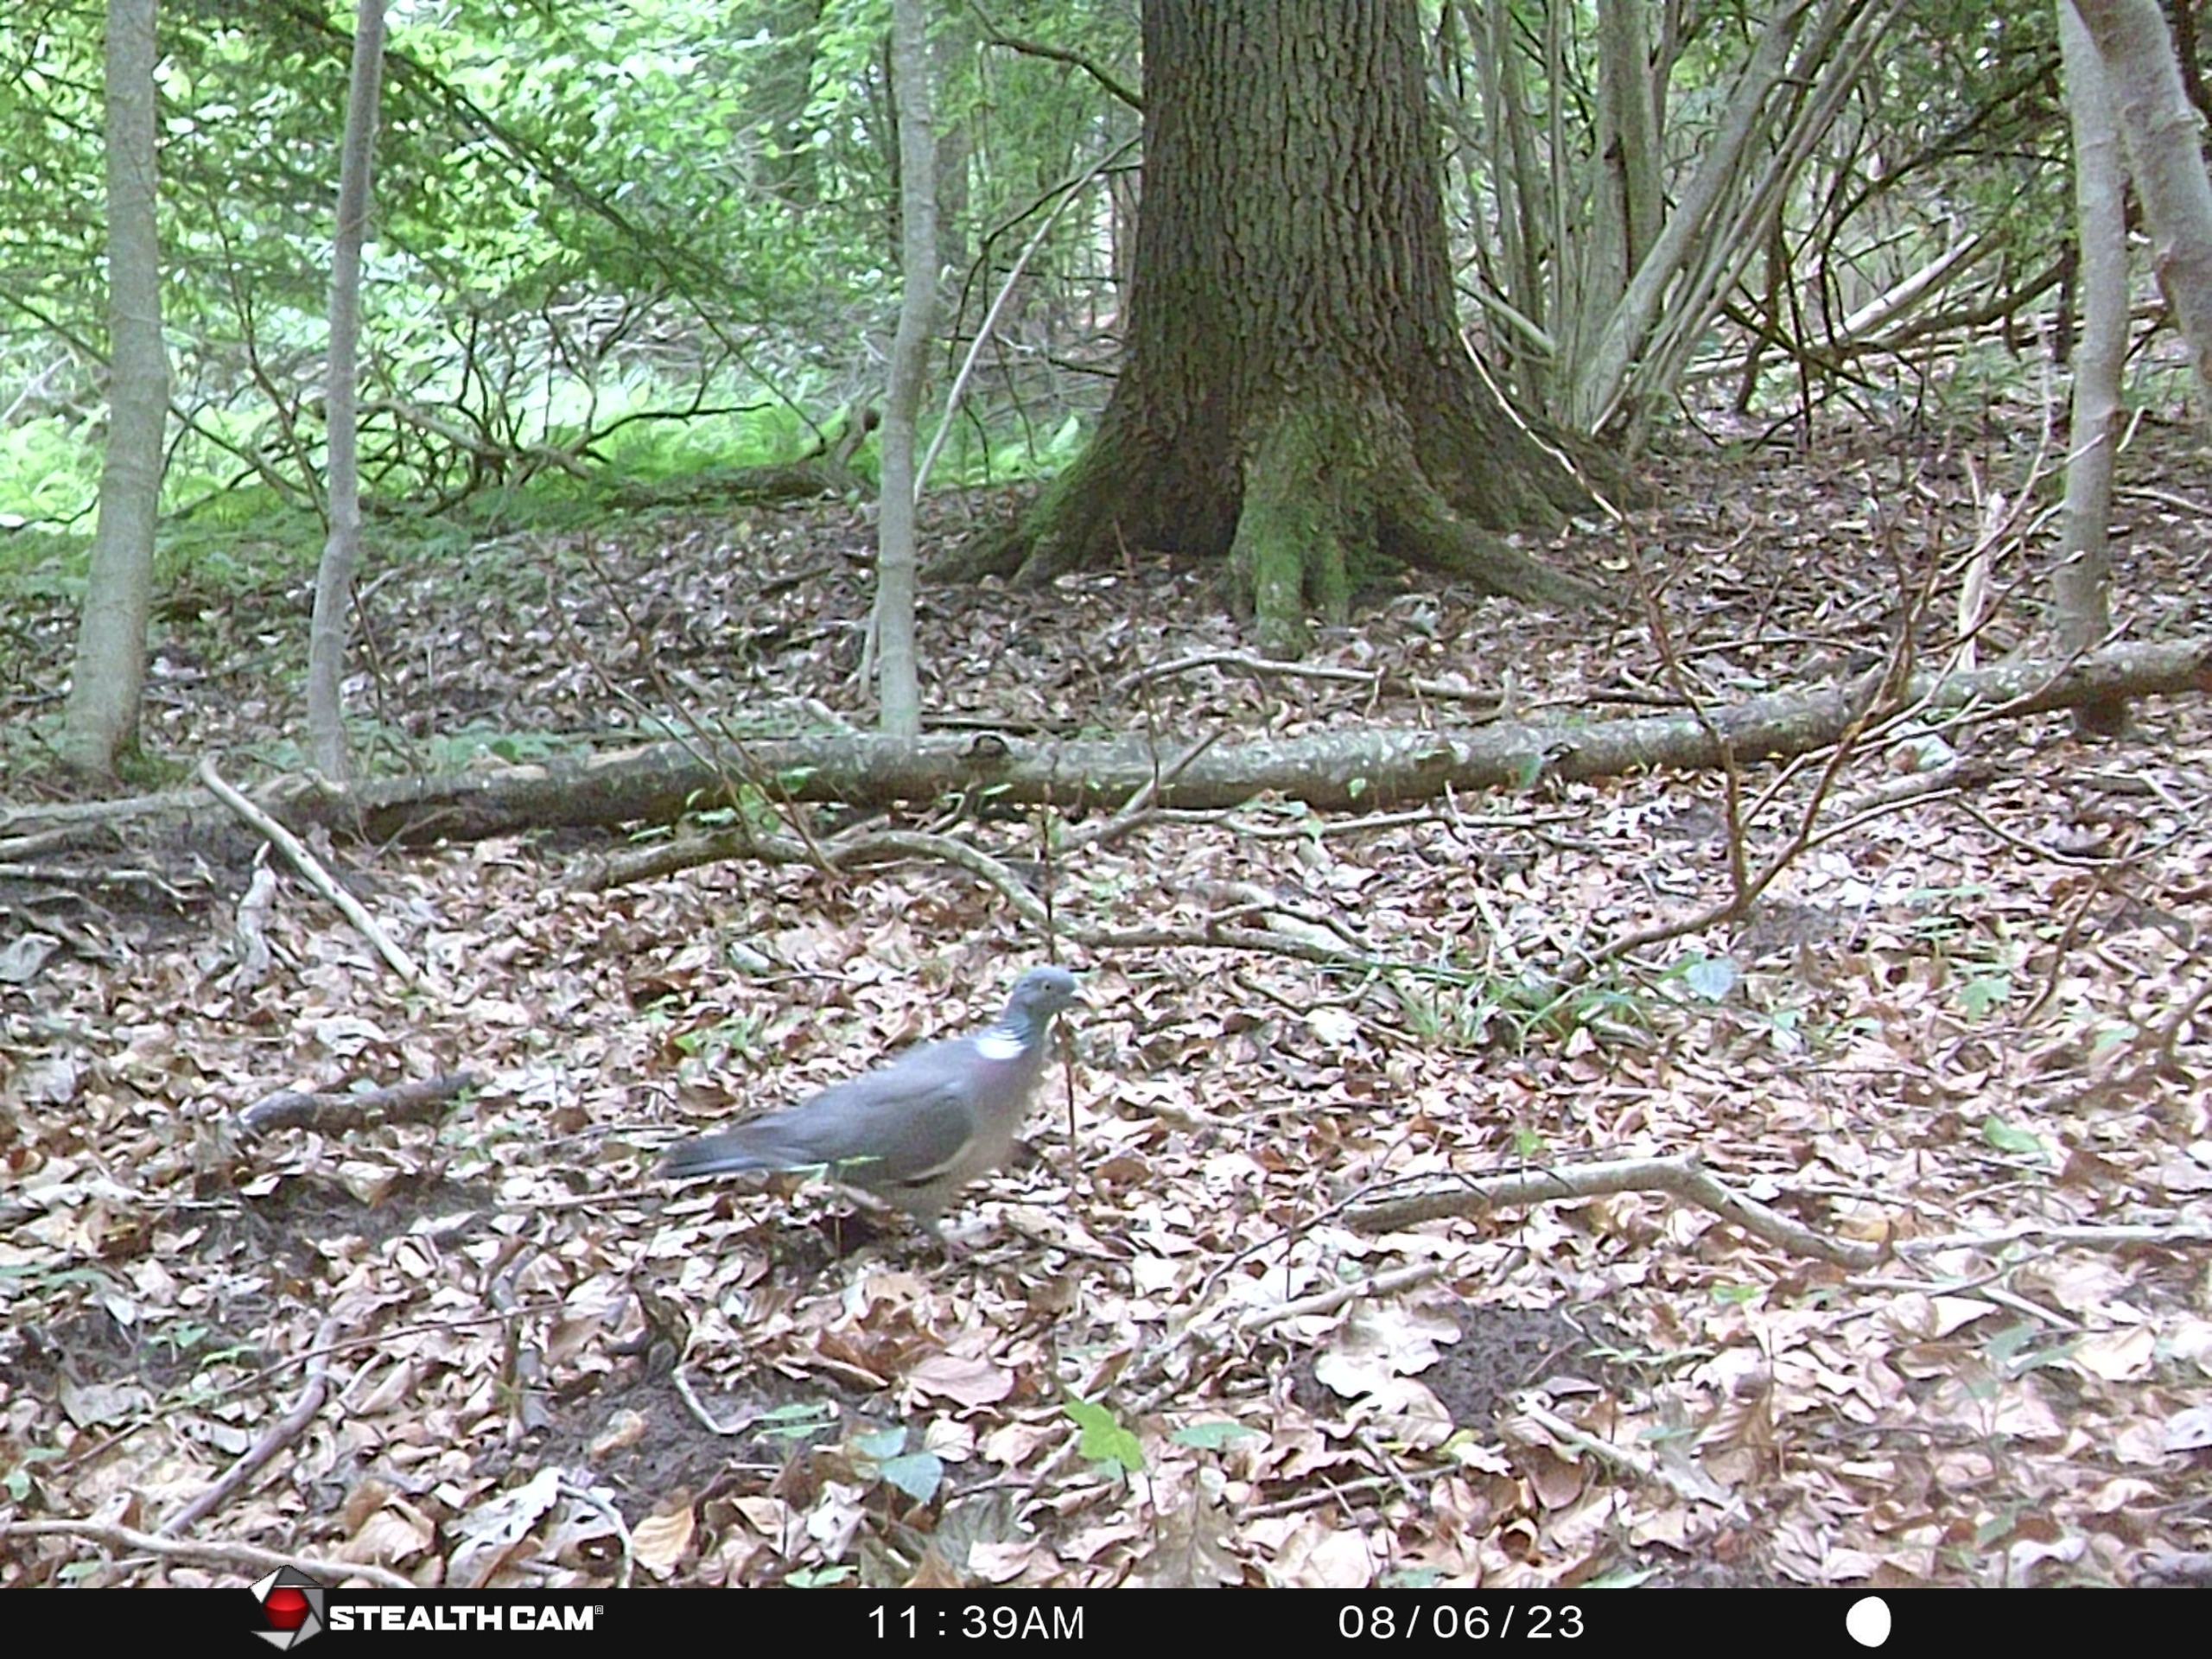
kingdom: Animalia
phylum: Chordata
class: Aves
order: Columbiformes
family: Columbidae
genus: Columba
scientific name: Columba palumbus
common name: Ringdue
